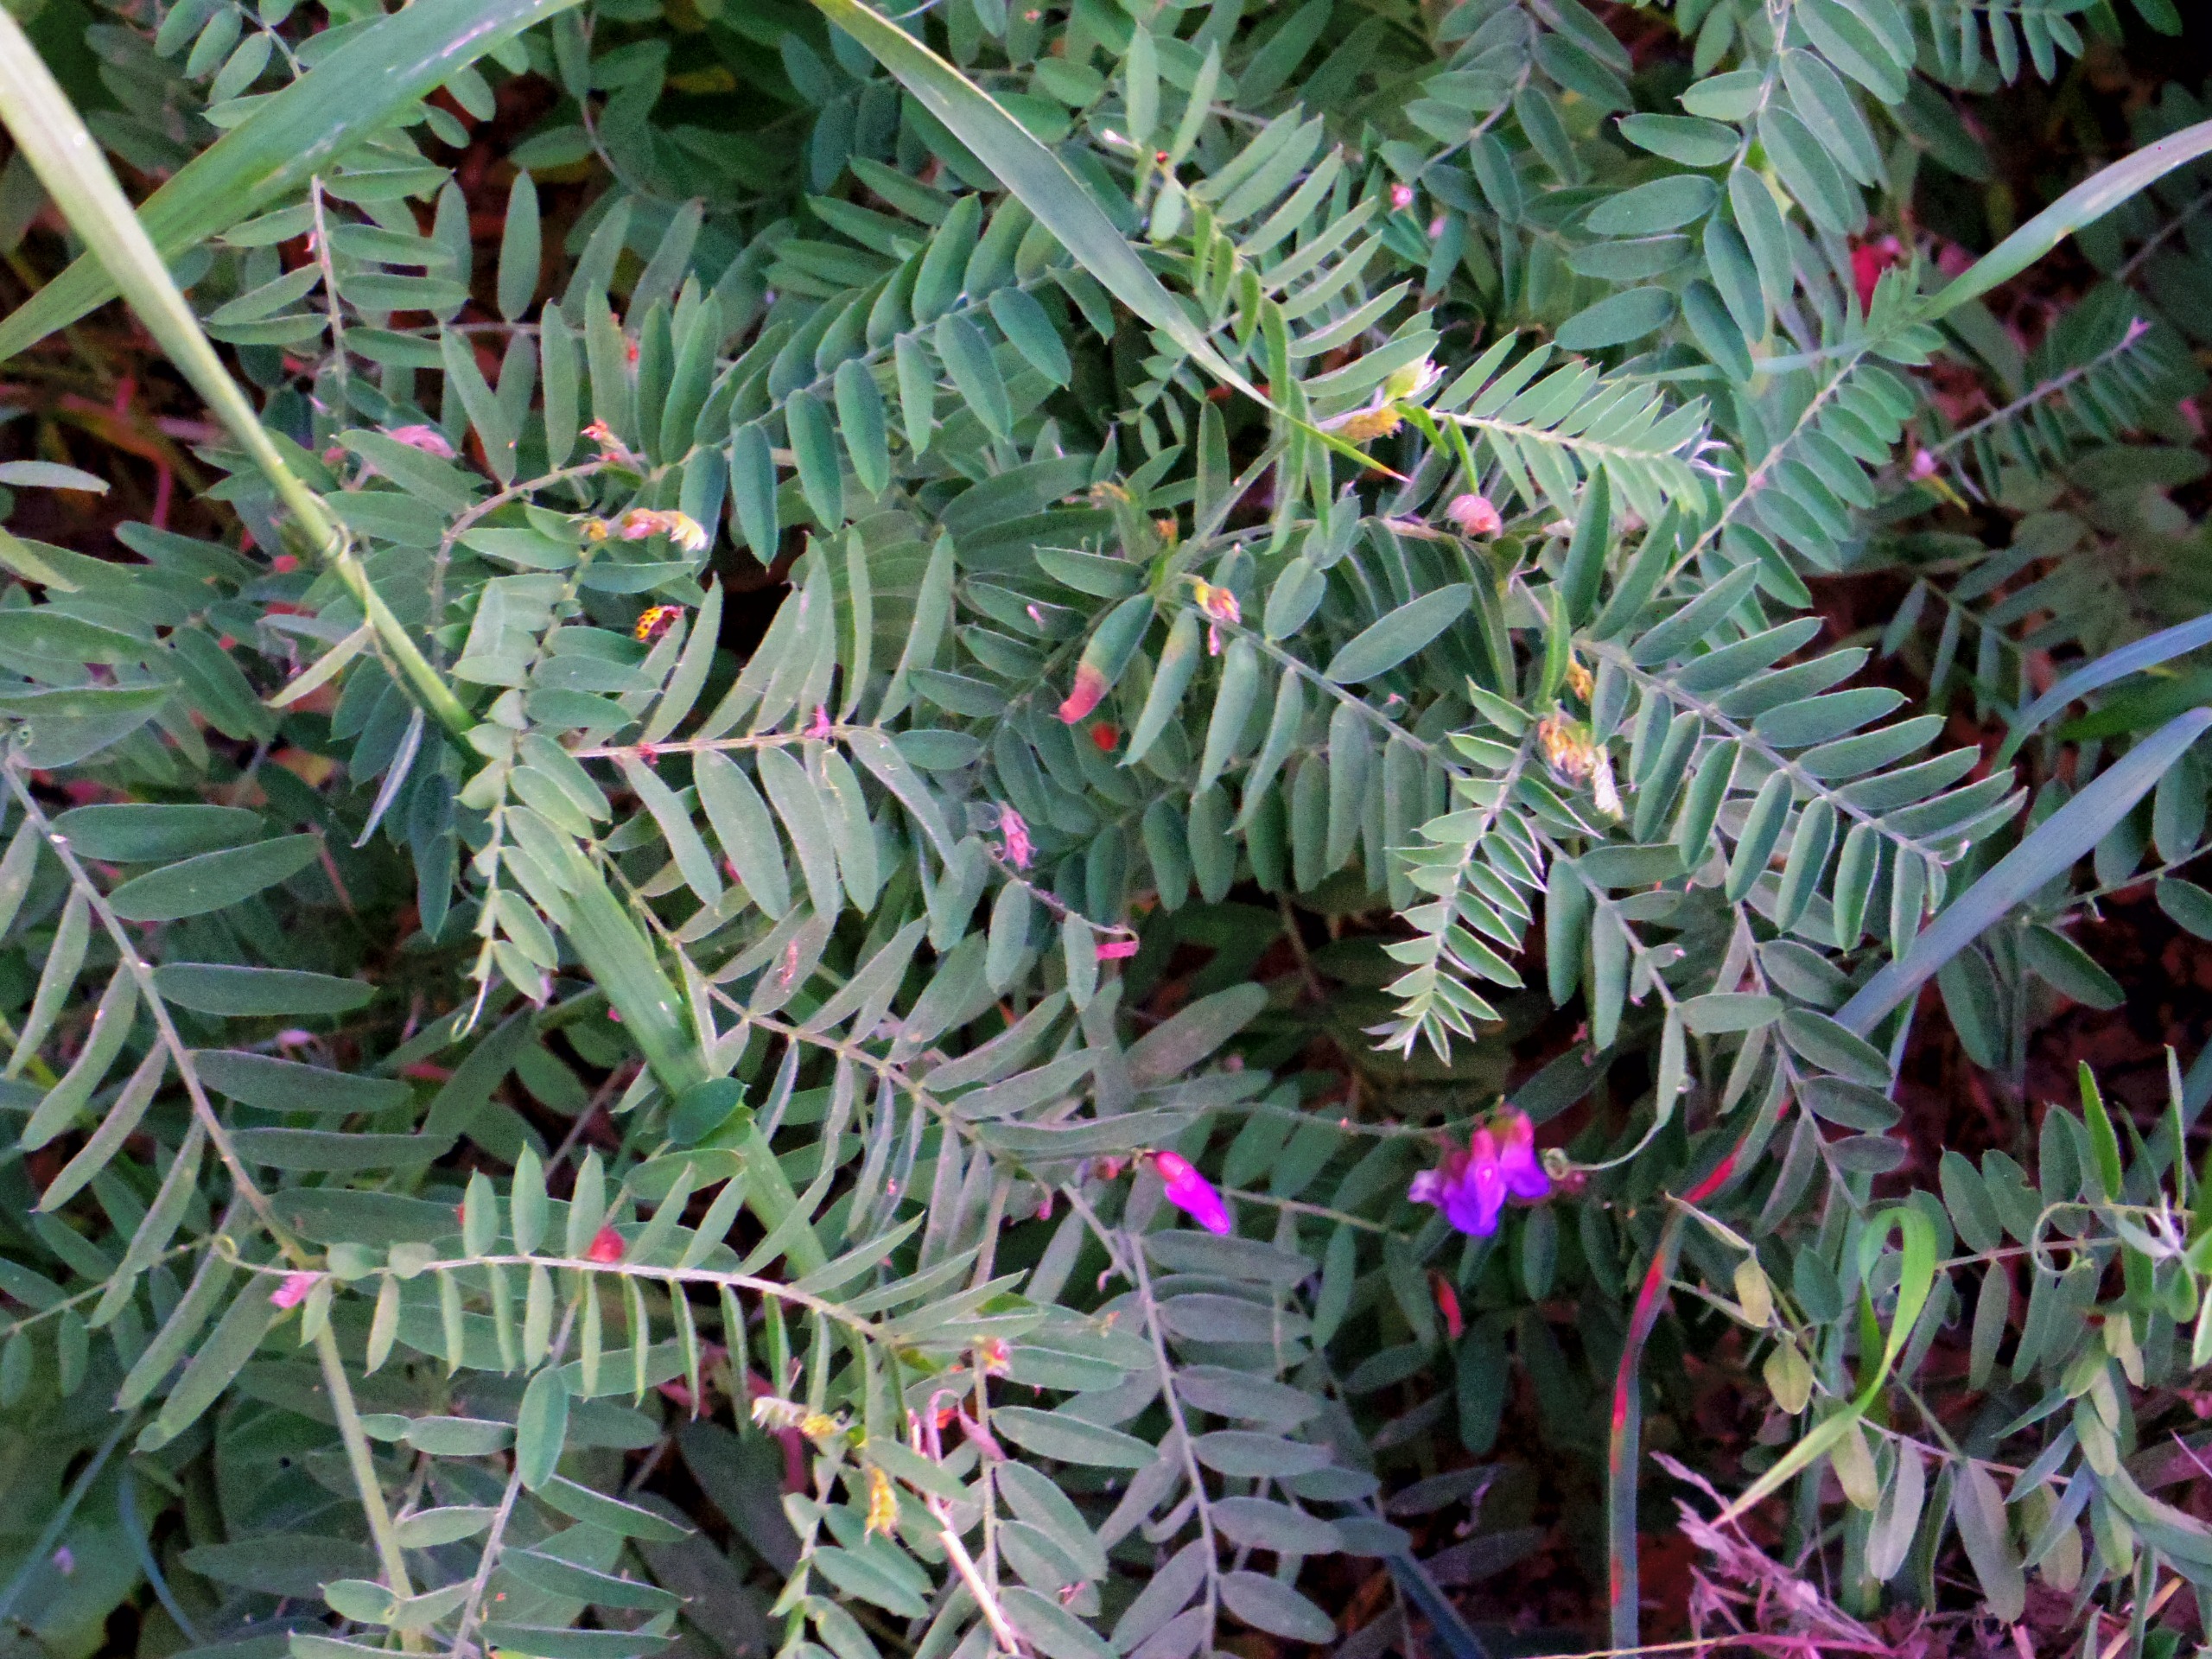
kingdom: Plantae
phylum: Tracheophyta
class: Magnoliopsida
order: Fabales
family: Fabaceae
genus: Vicia
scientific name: Vicia cracca
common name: Muse-vikke
